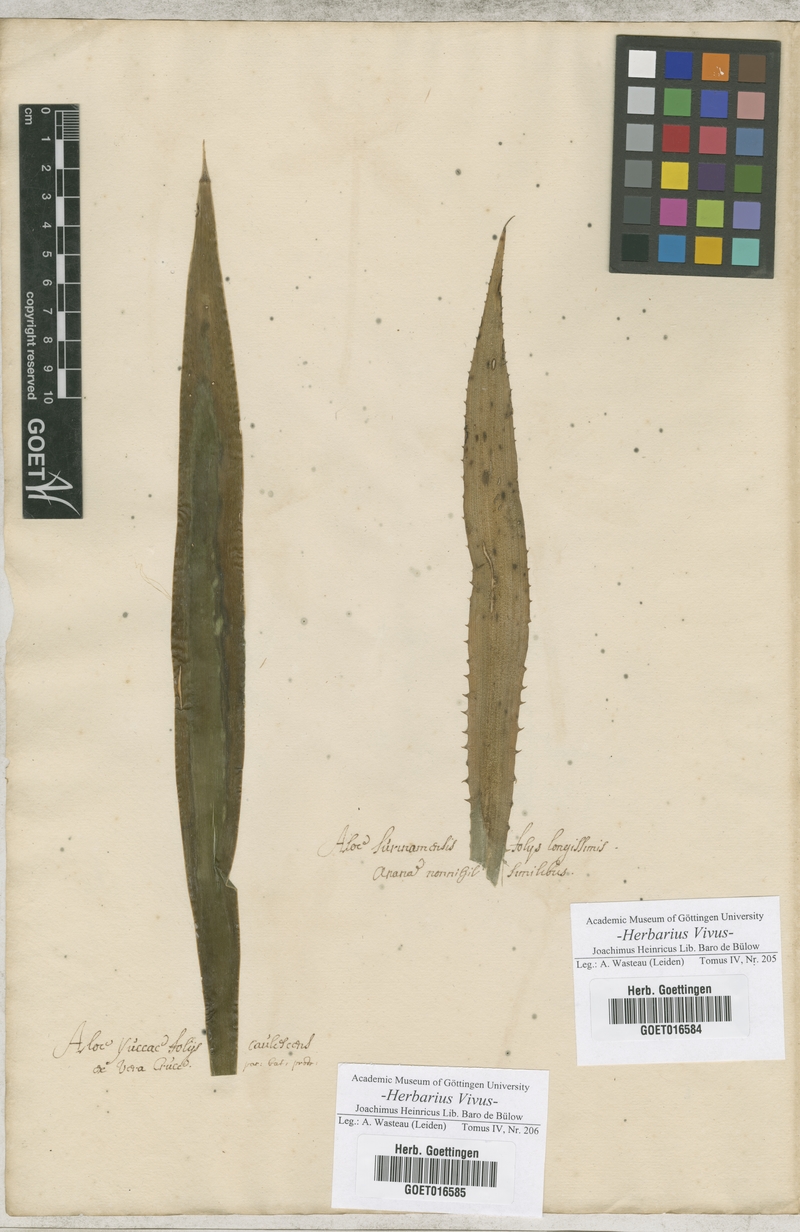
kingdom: Plantae
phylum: Tracheophyta
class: Liliopsida
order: Asparagales
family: Asphodelaceae
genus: Aloe
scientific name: Aloe
